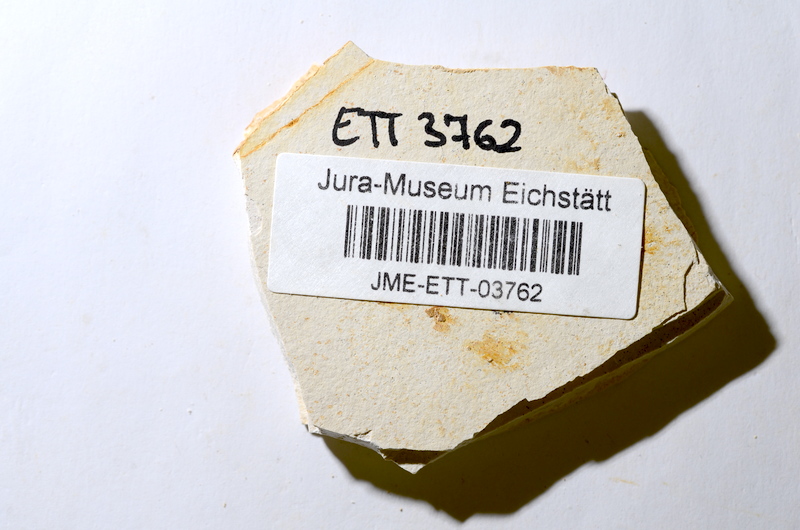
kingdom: Animalia
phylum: Chordata
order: Salmoniformes
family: Orthogonikleithridae
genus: Orthogonikleithrus
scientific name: Orthogonikleithrus hoelli
